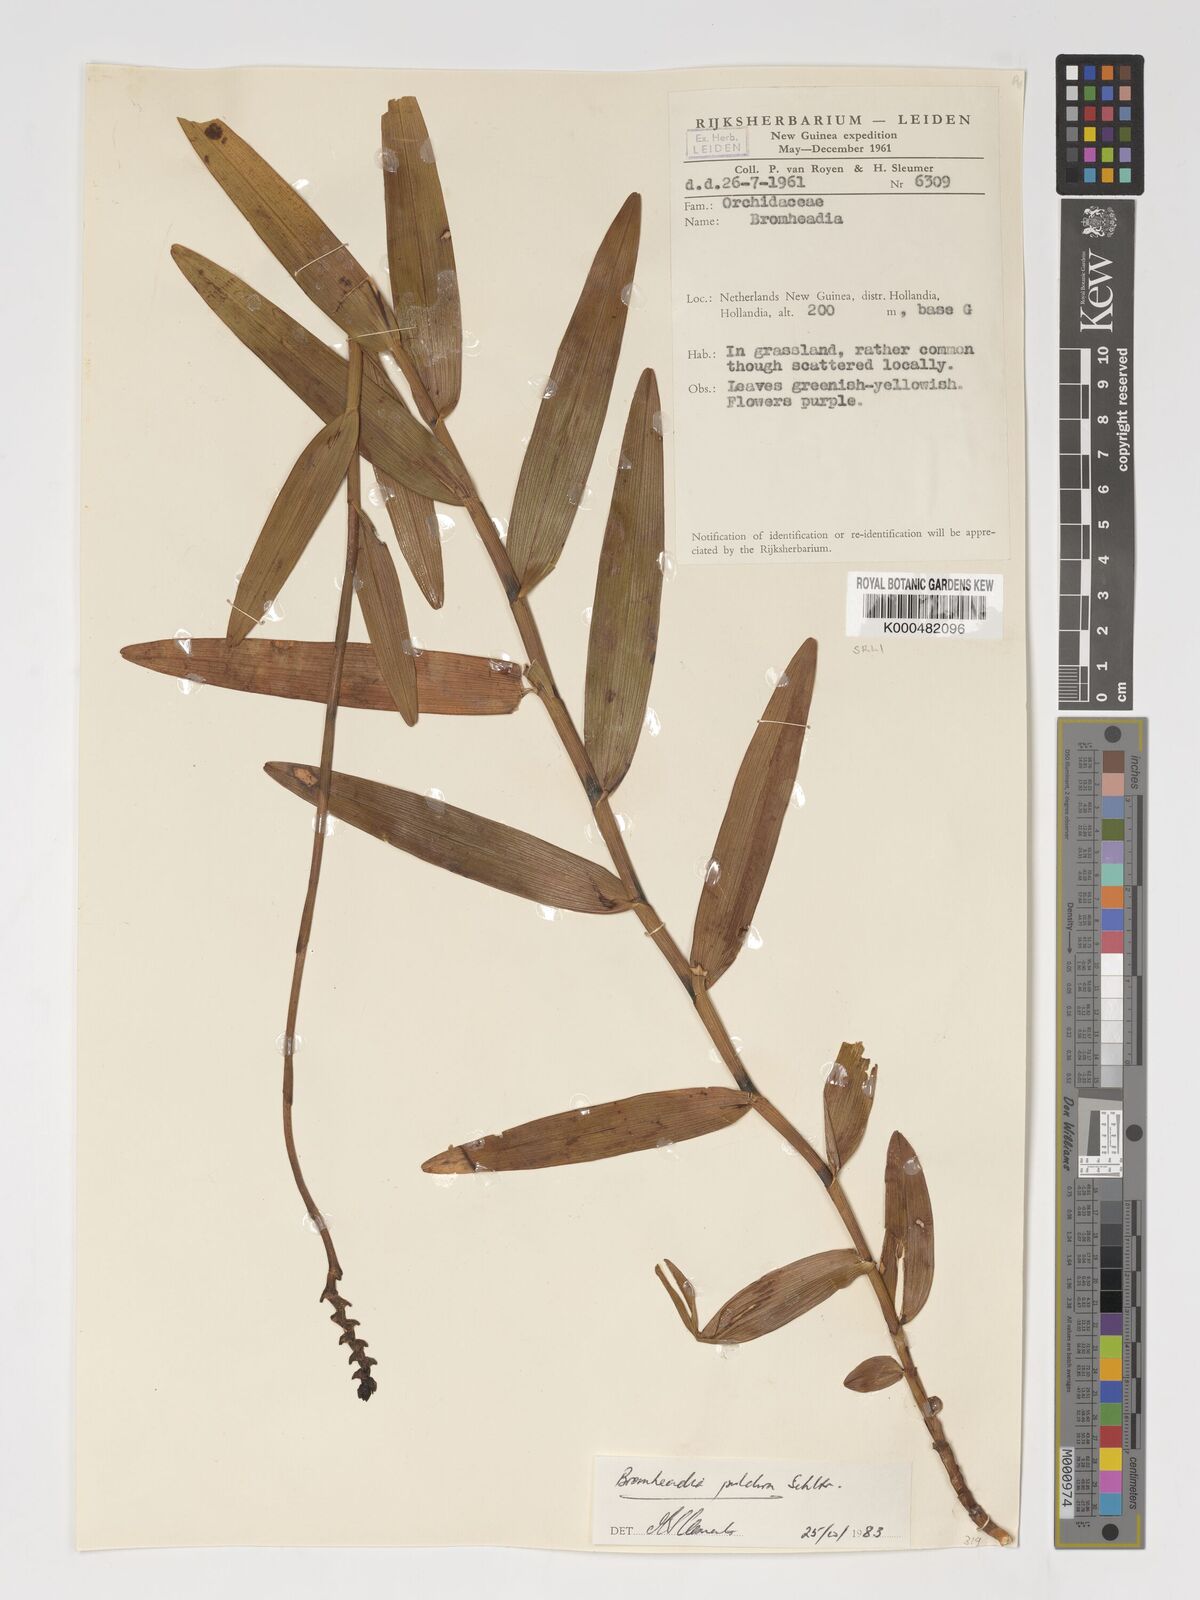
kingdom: Plantae
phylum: Tracheophyta
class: Liliopsida
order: Asparagales
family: Orchidaceae
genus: Bromheadia
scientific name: Bromheadia finlaysoniana
